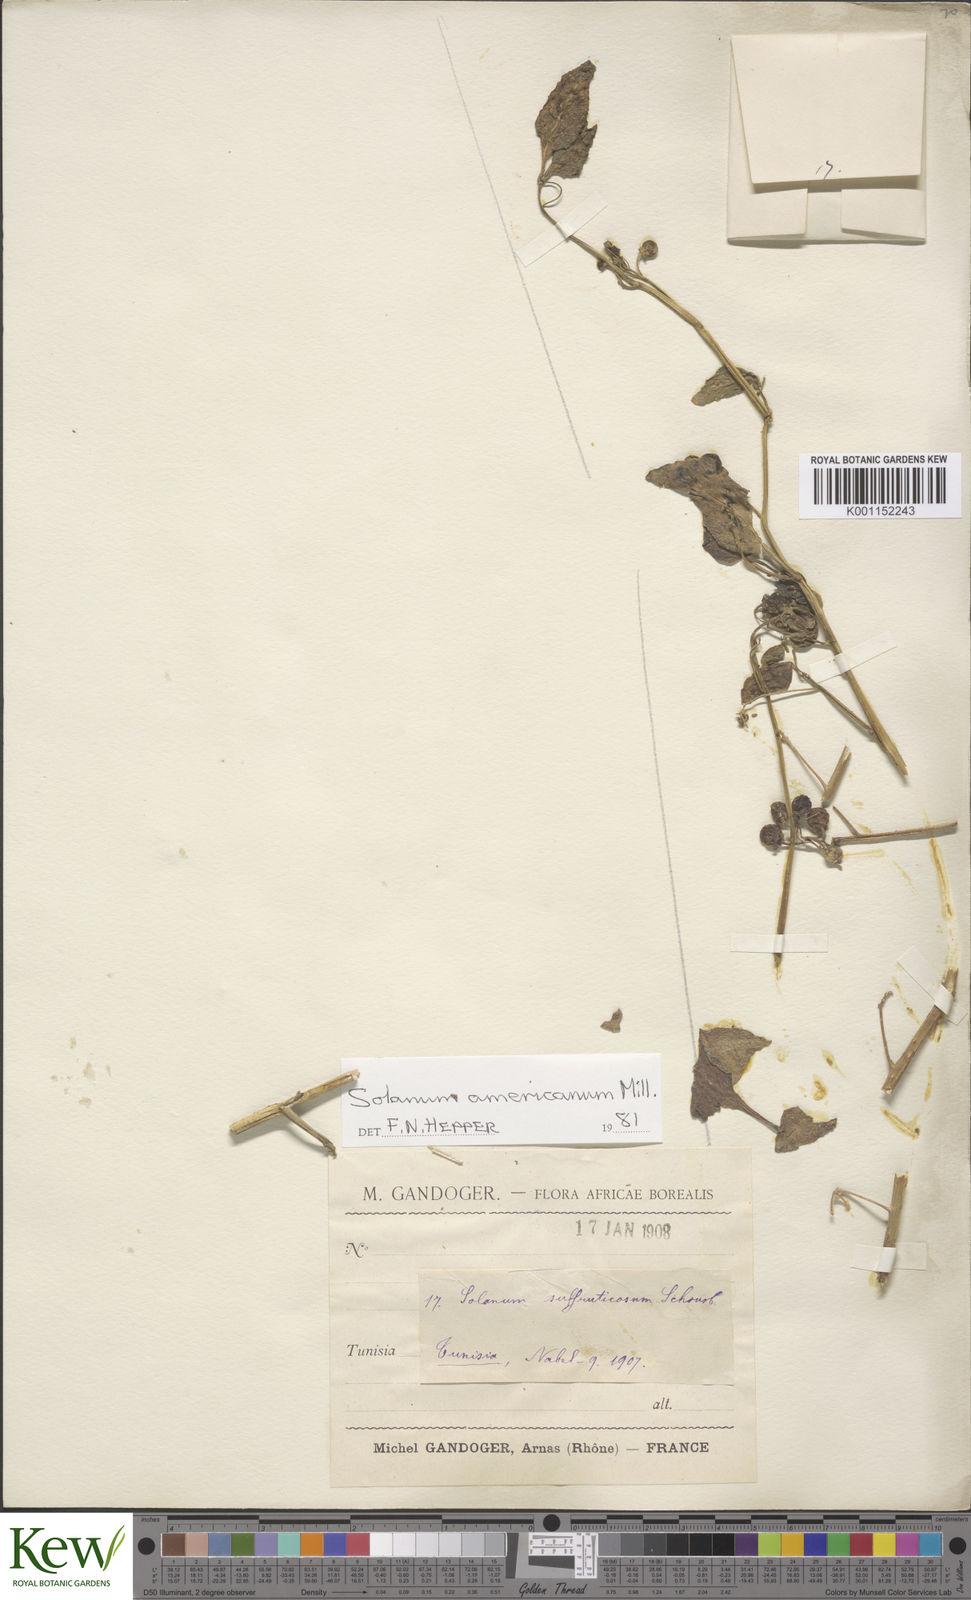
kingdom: Plantae
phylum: Tracheophyta
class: Magnoliopsida
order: Solanales
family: Solanaceae
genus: Solanum
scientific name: Solanum americanum
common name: American black nightshade
